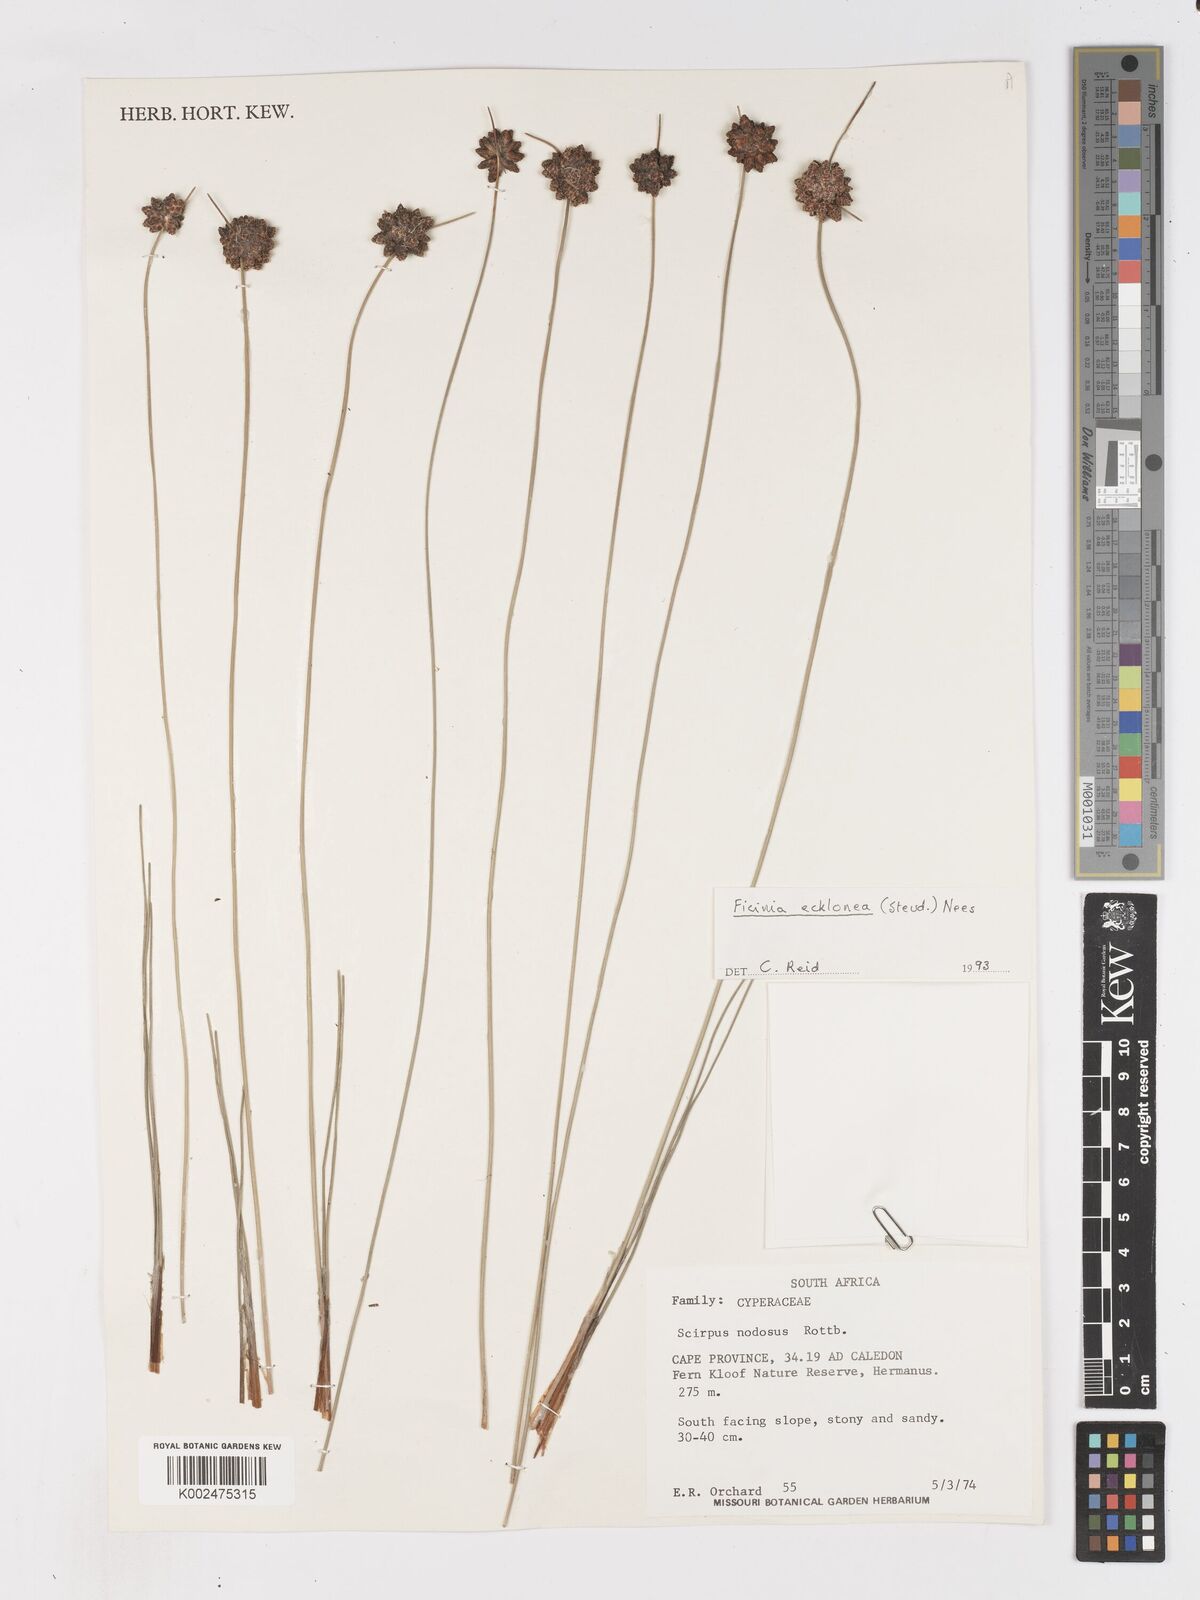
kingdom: Plantae
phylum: Tracheophyta
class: Liliopsida
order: Poales
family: Cyperaceae
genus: Ficinia
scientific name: Ficinia ecklonea
